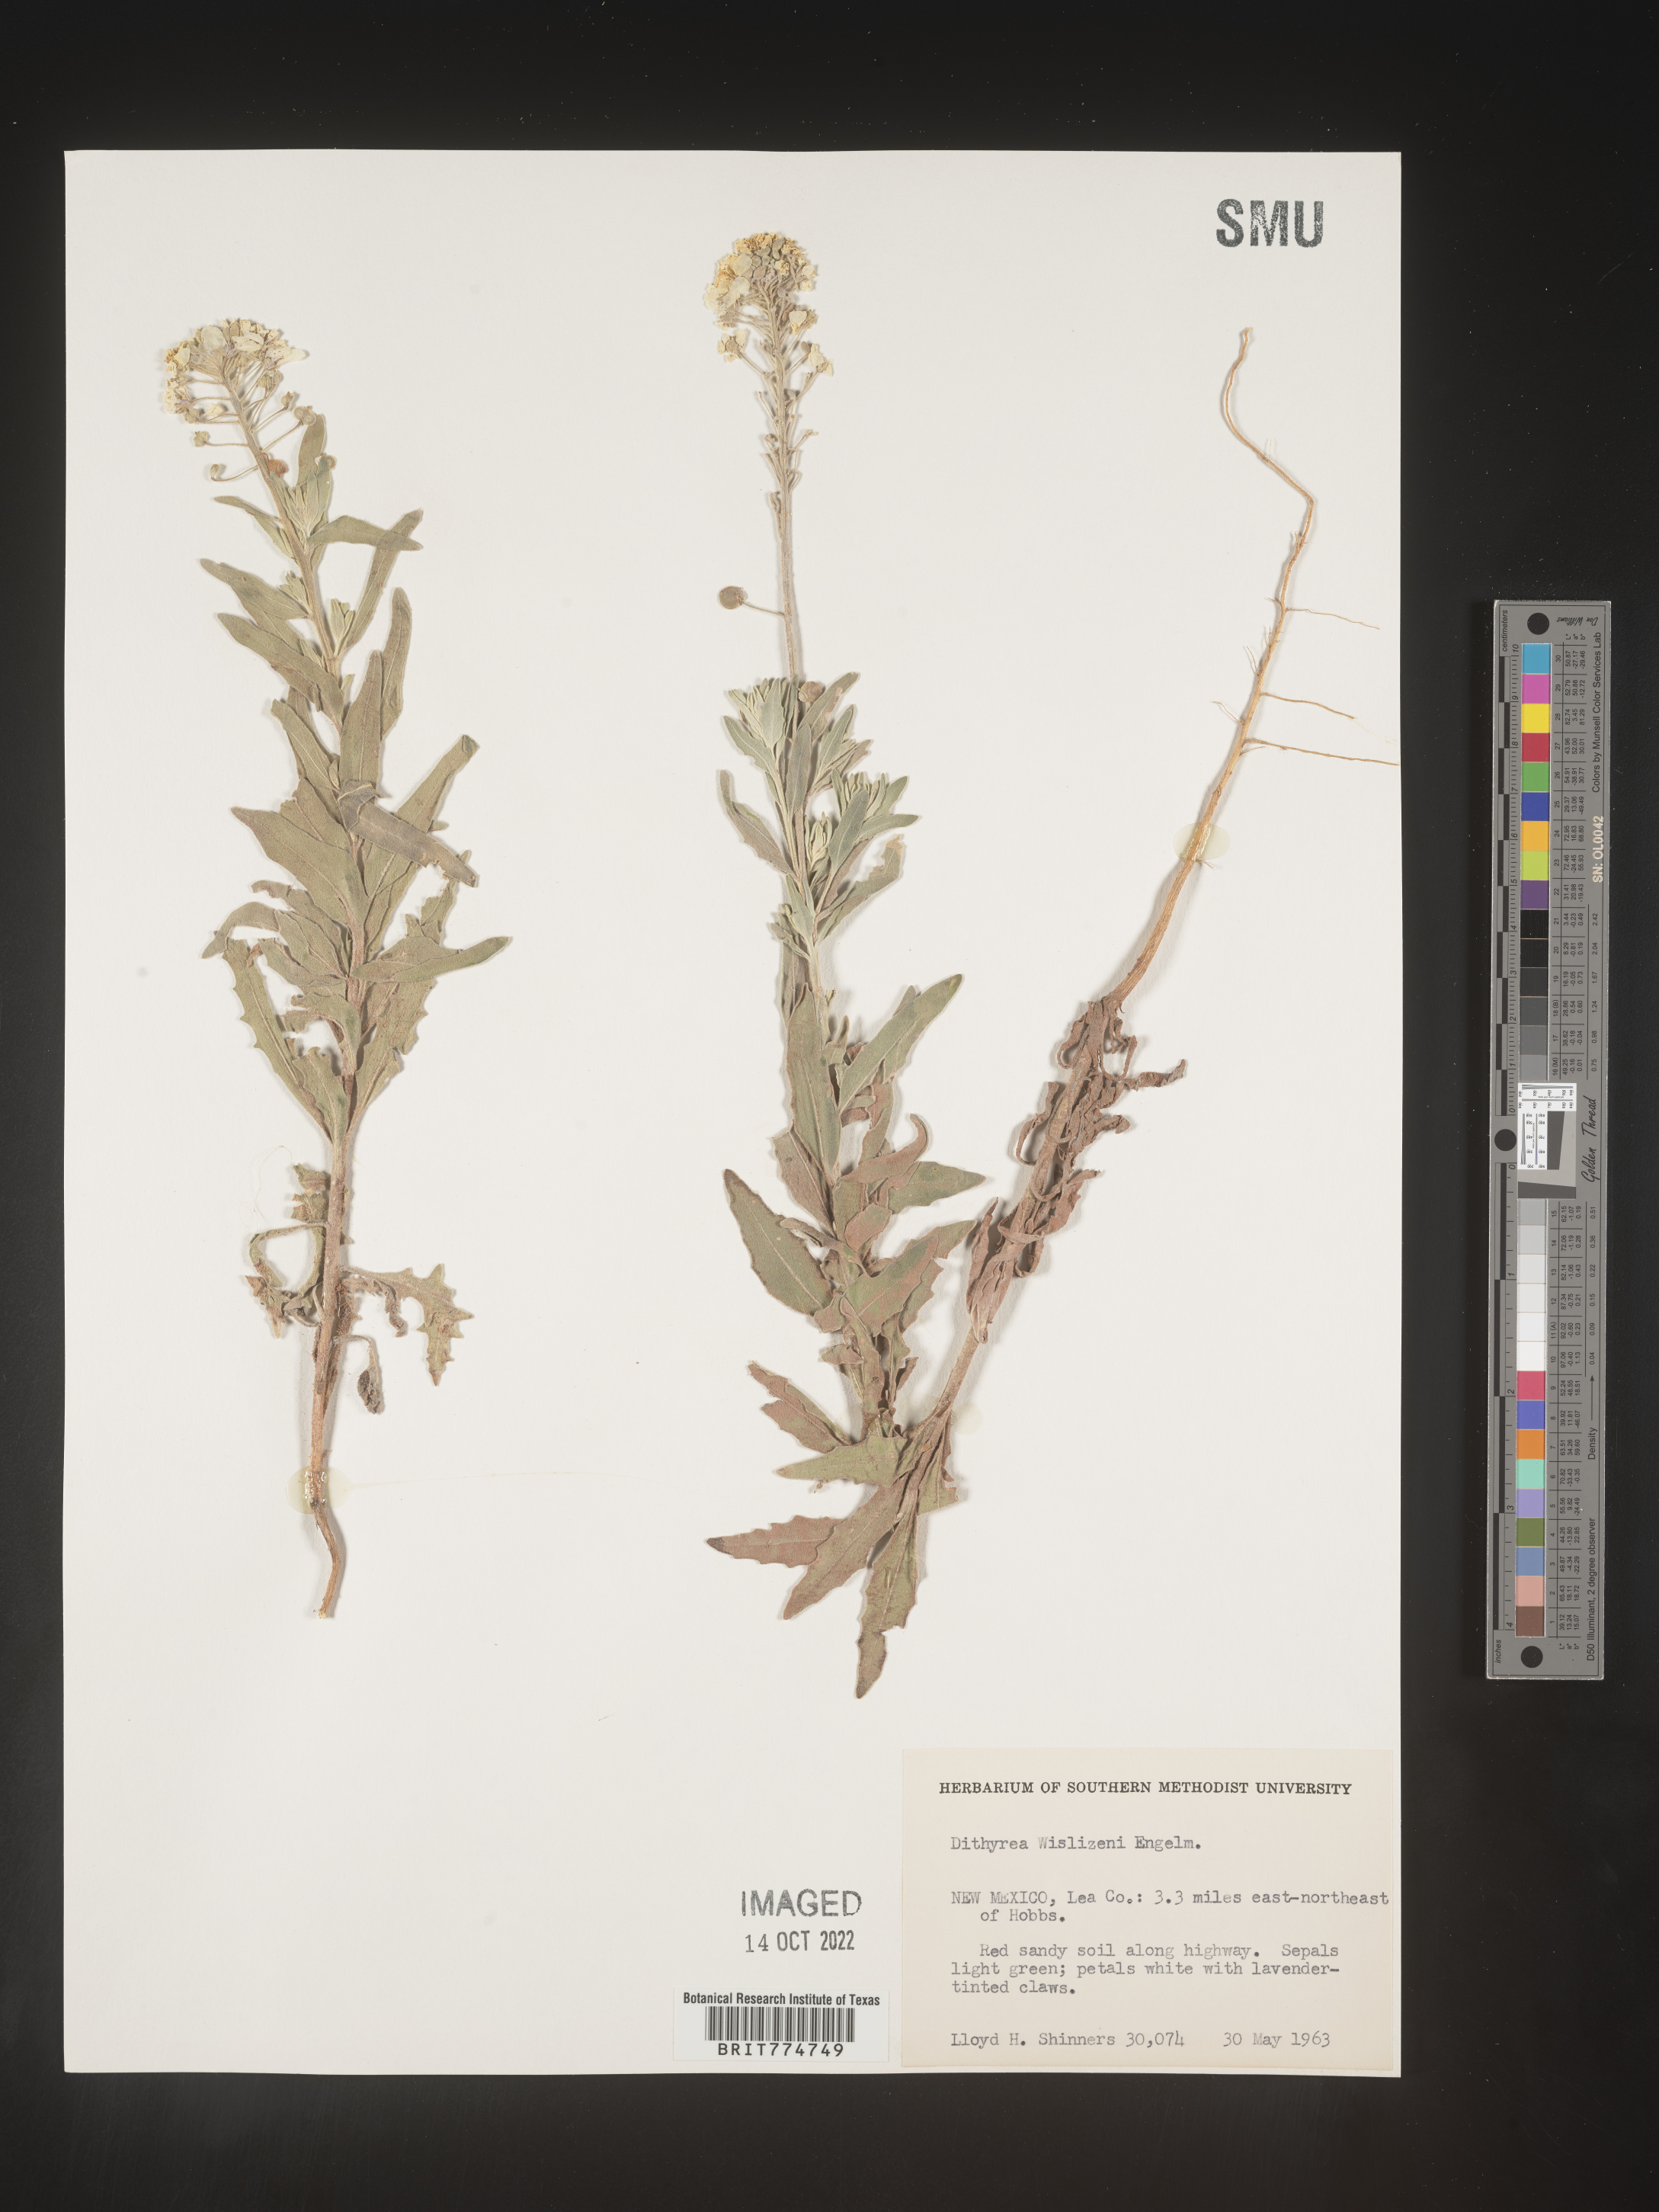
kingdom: Plantae
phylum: Tracheophyta
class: Magnoliopsida
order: Brassicales
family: Brassicaceae
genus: Dimorphocarpa
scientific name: Dimorphocarpa wislizenii
